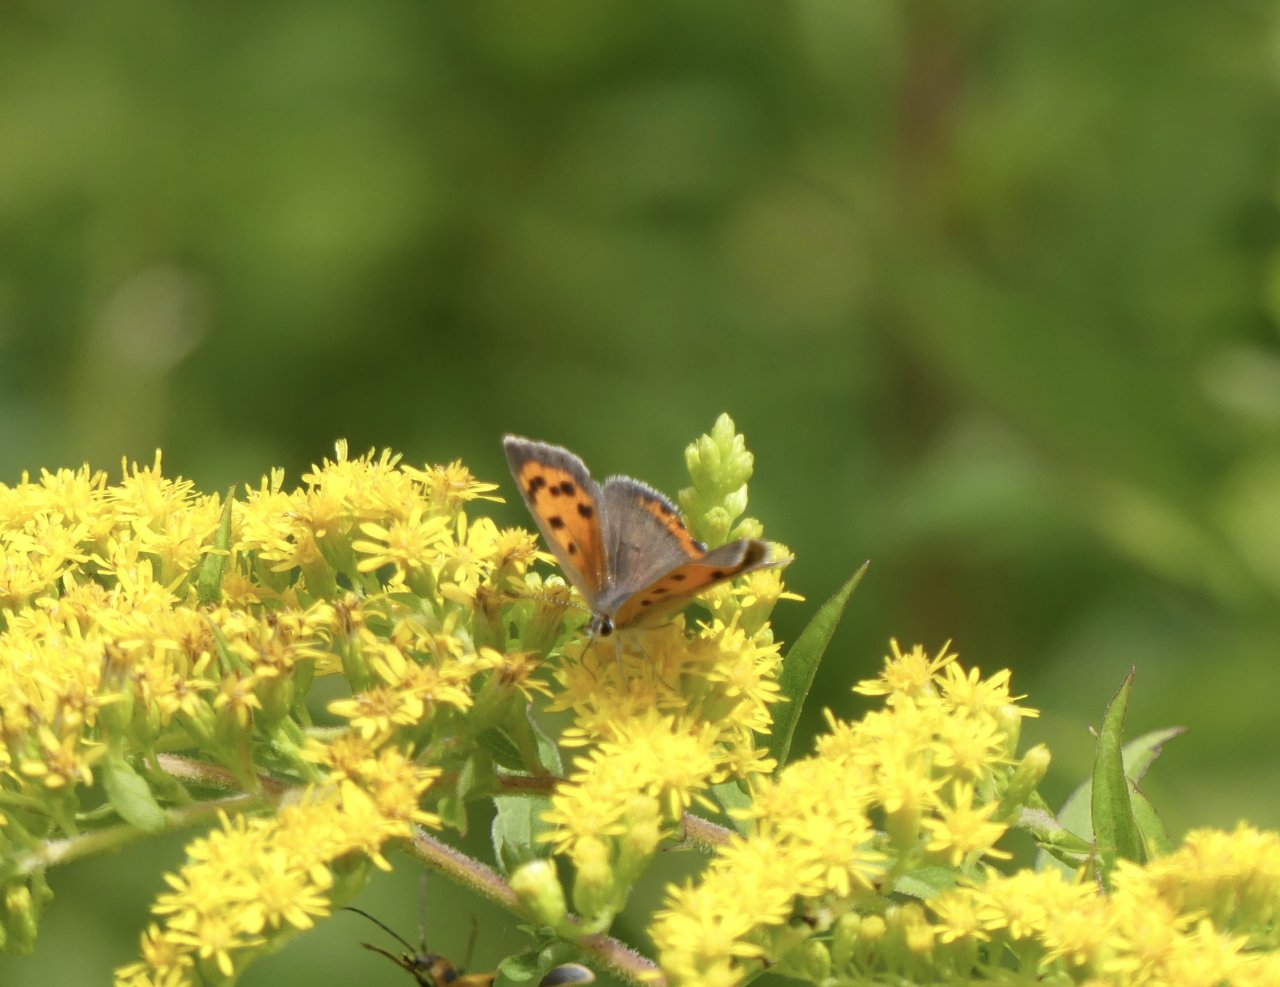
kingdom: Animalia
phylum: Arthropoda
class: Insecta
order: Lepidoptera
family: Lycaenidae
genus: Lycaena
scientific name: Lycaena phlaeas
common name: American Copper
